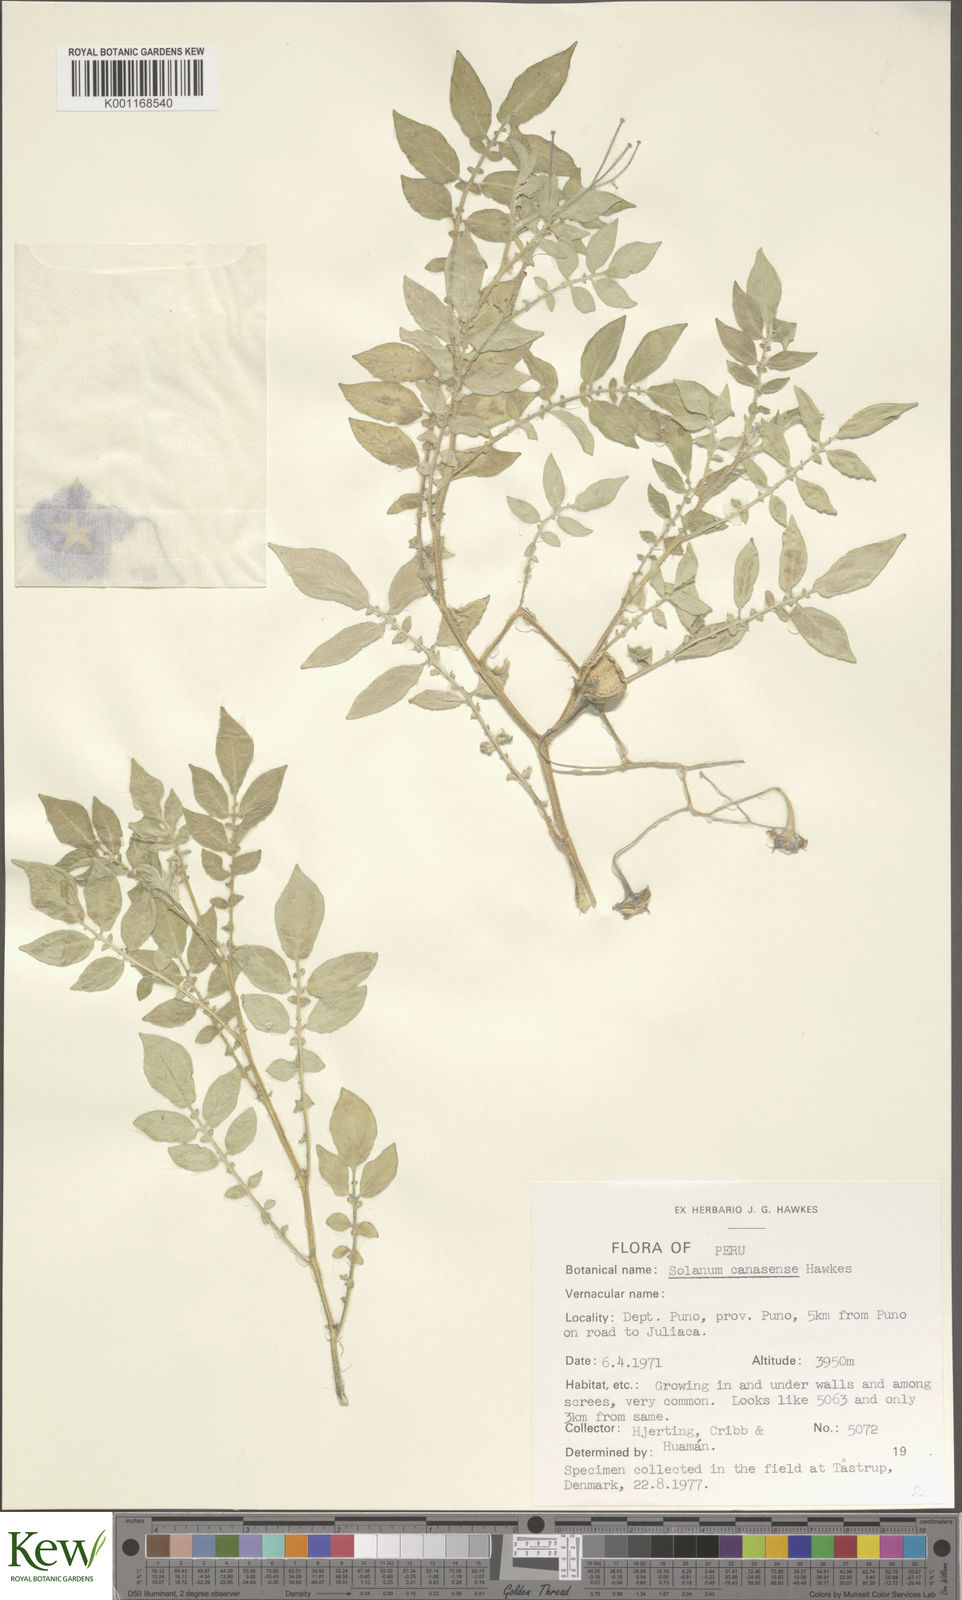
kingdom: Plantae
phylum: Tracheophyta
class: Magnoliopsida
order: Solanales
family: Solanaceae
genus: Solanum
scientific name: Solanum candolleanum
